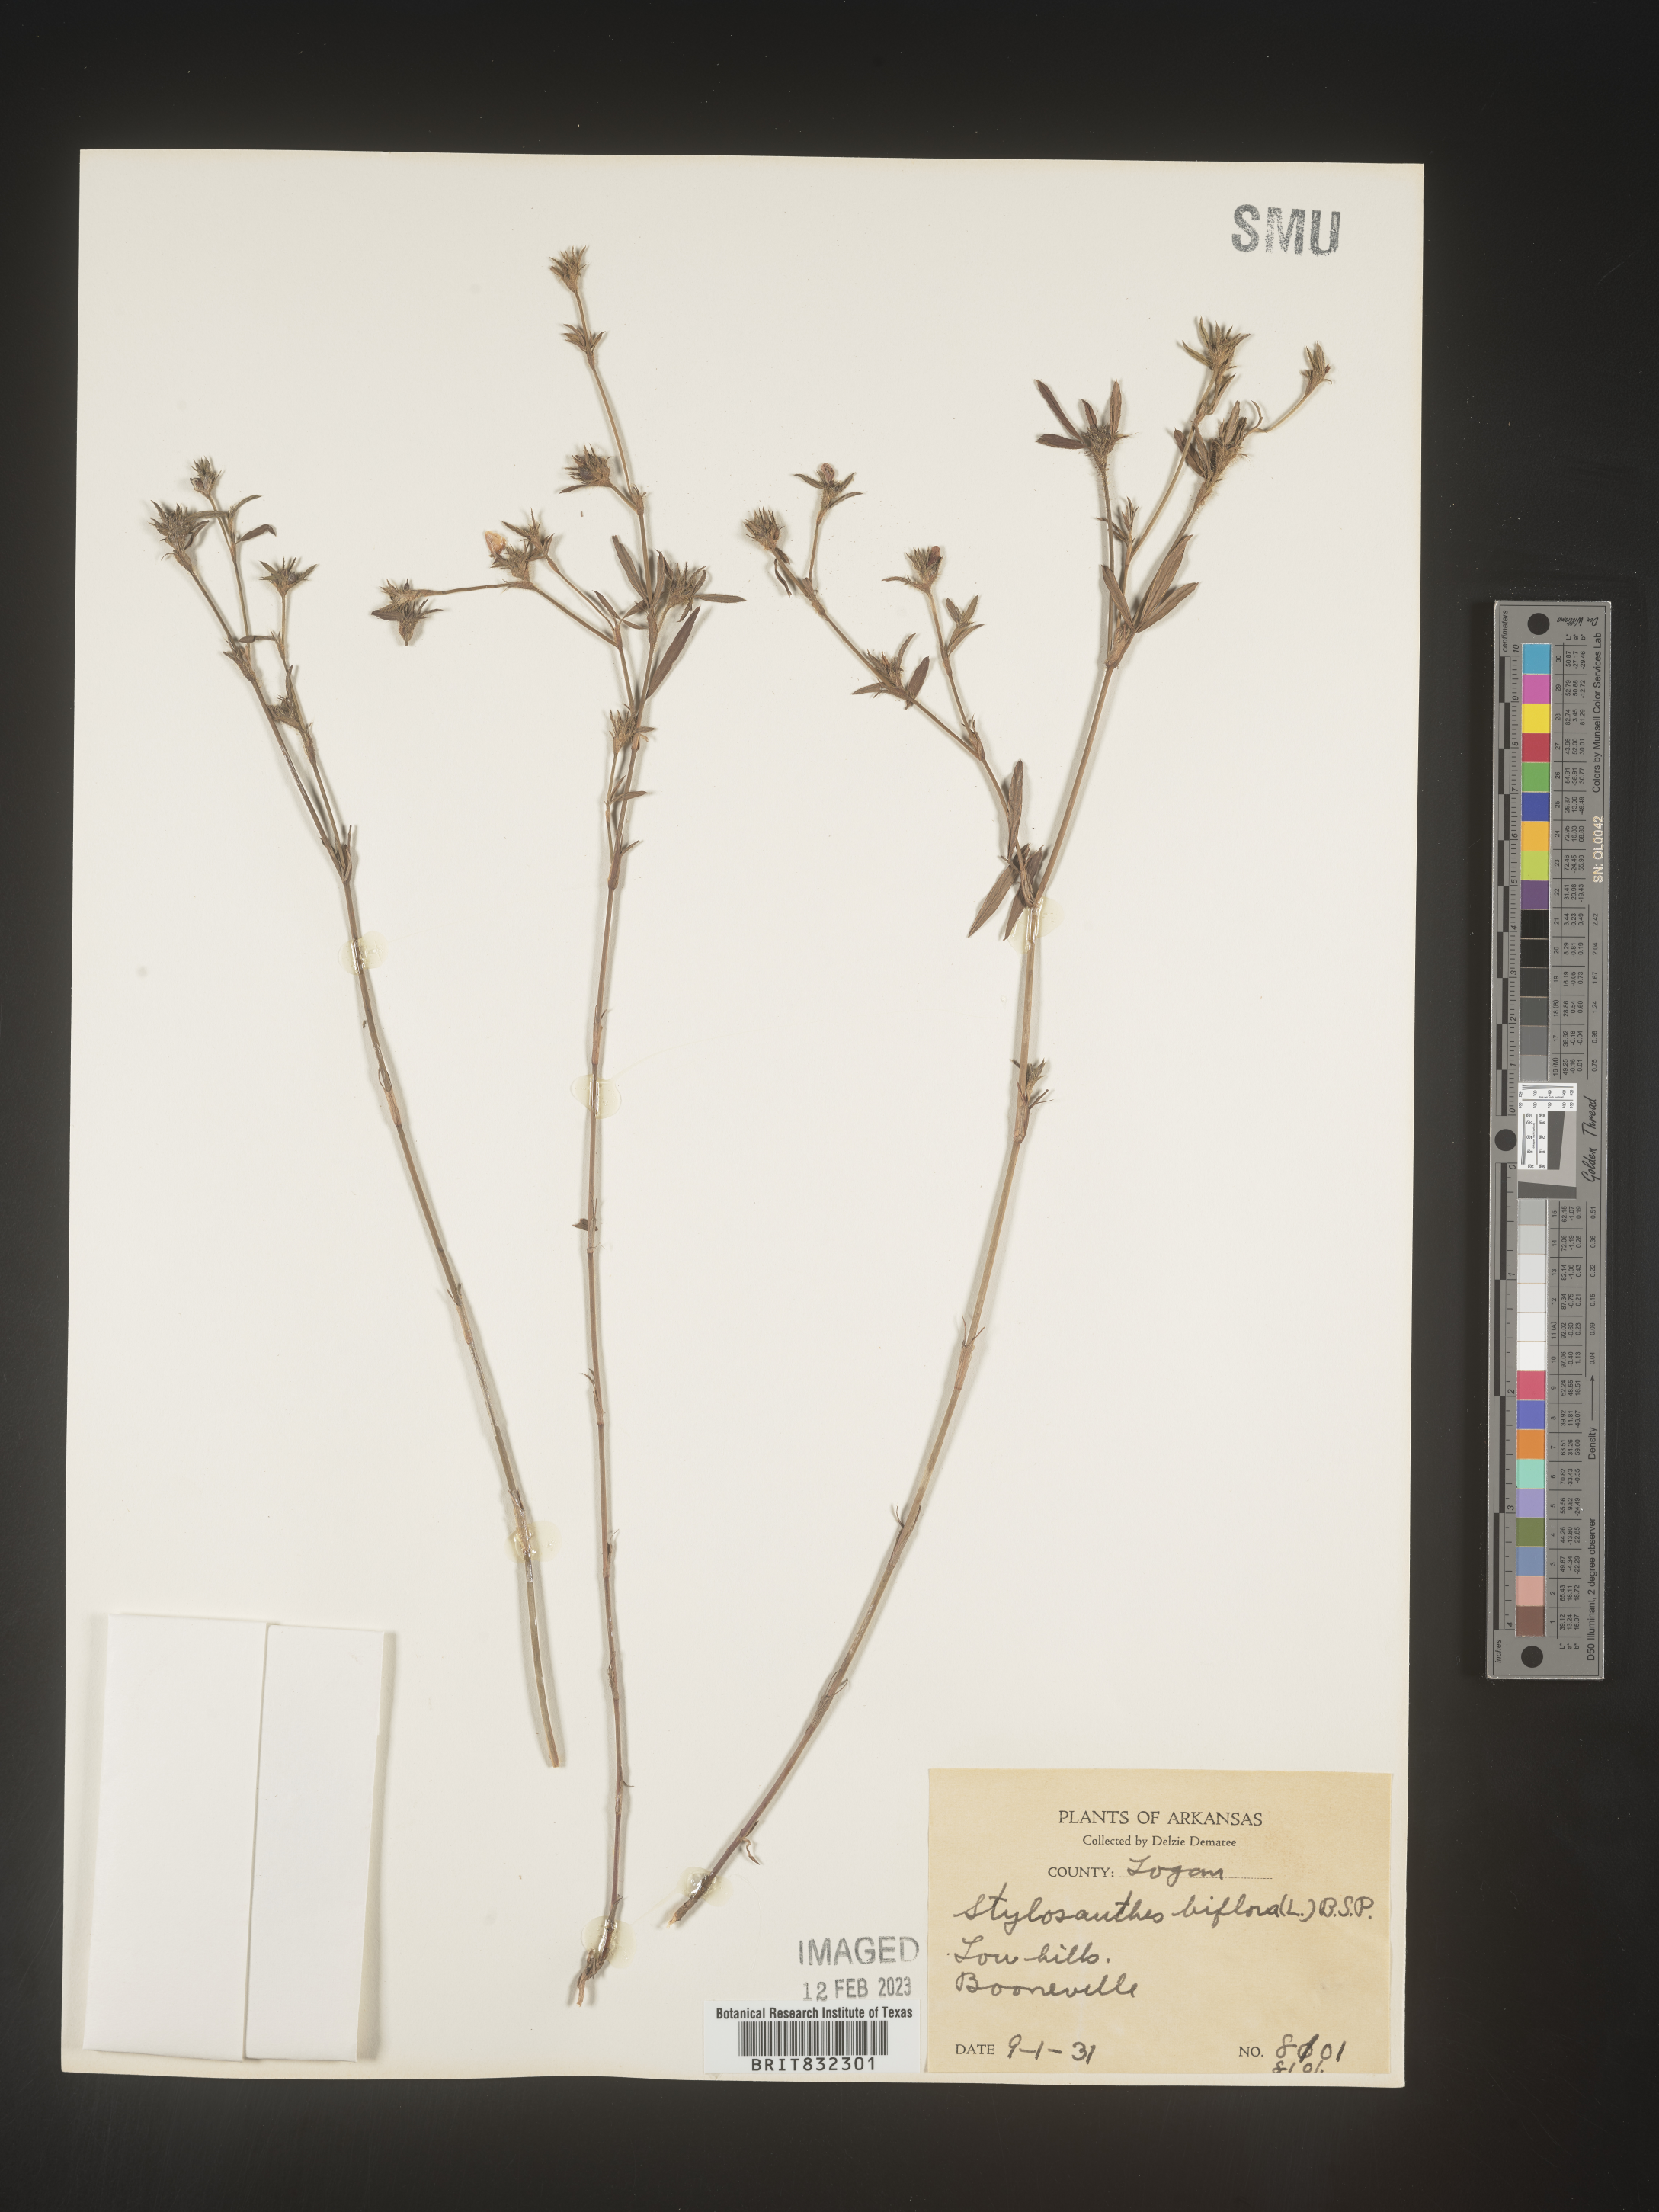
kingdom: Plantae
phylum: Tracheophyta
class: Magnoliopsida
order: Fabales
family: Fabaceae
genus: Stylosanthes
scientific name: Stylosanthes biflora
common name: Two-flower pencil-flower
